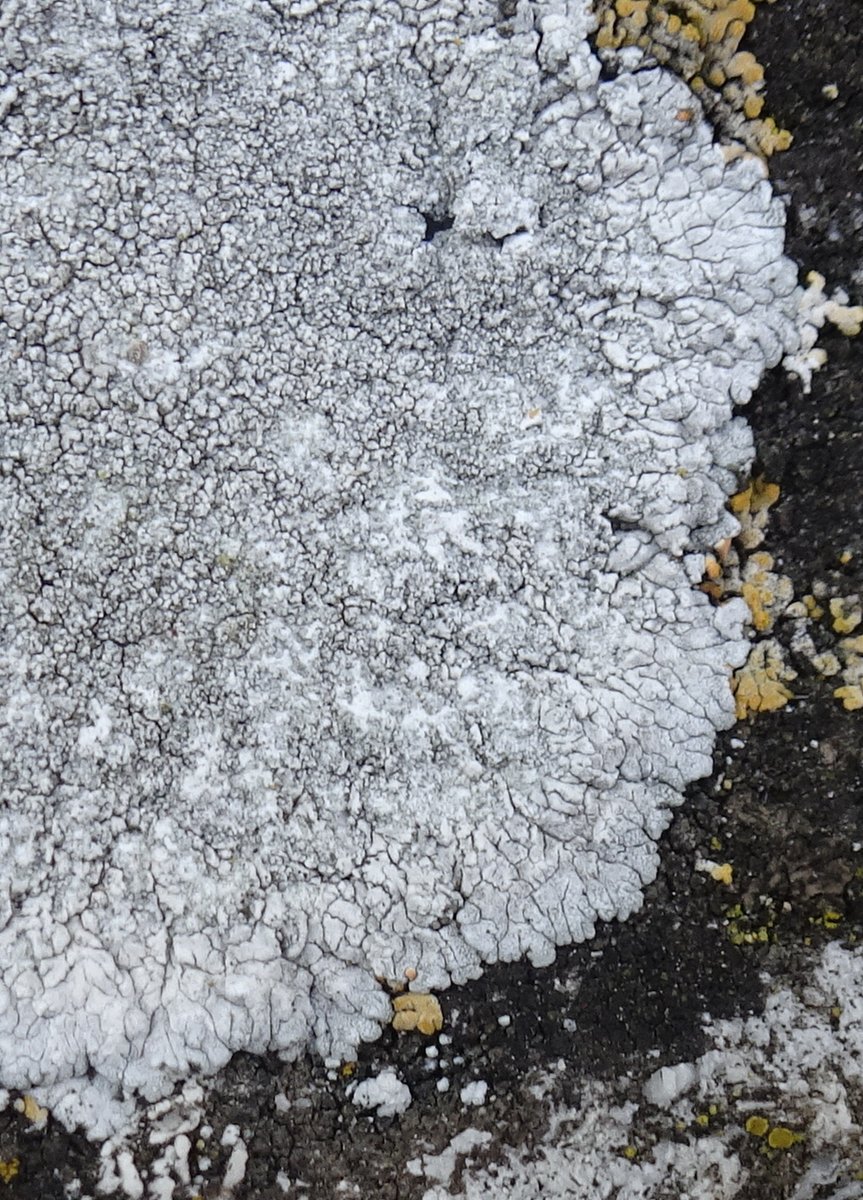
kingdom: Fungi
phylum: Ascomycota
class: Lecanoromycetes
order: Teloschistales
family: Teloschistaceae
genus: Kuettlingeria
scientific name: Kuettlingeria teicholyta
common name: grå orangelav
